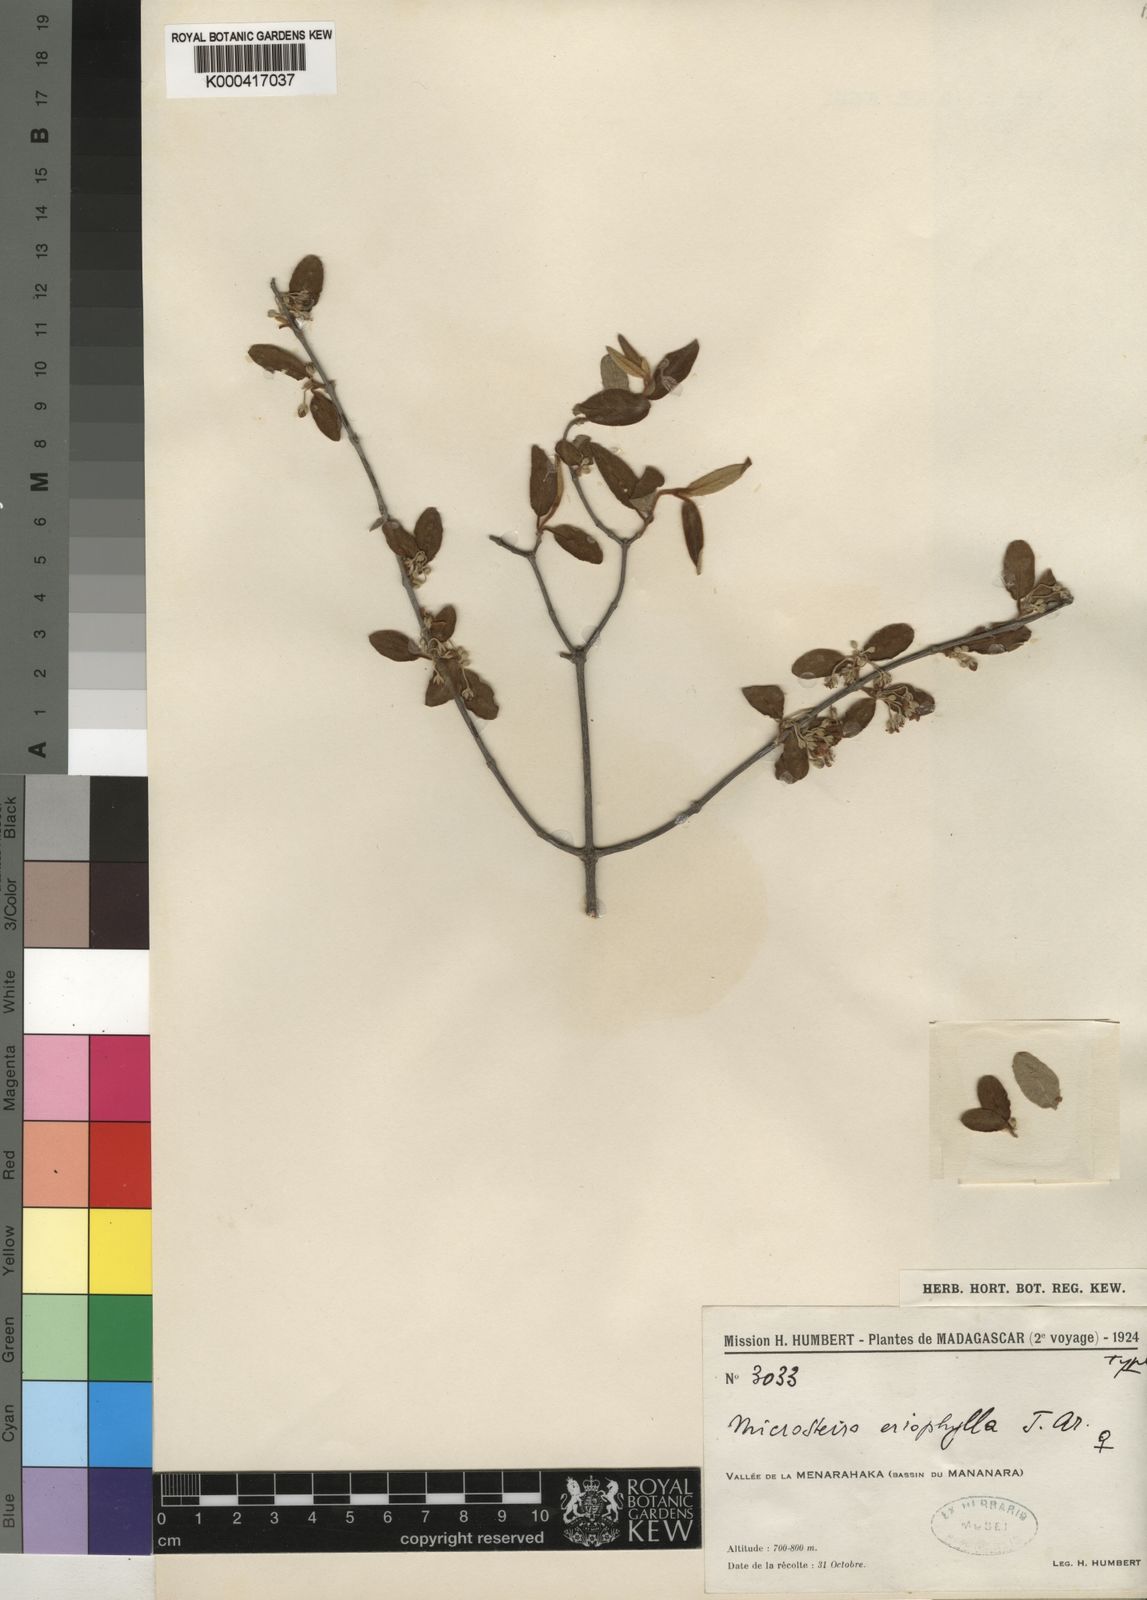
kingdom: Plantae
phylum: Tracheophyta
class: Magnoliopsida
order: Malpighiales
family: Malpighiaceae
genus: Microsteira
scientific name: Microsteira
